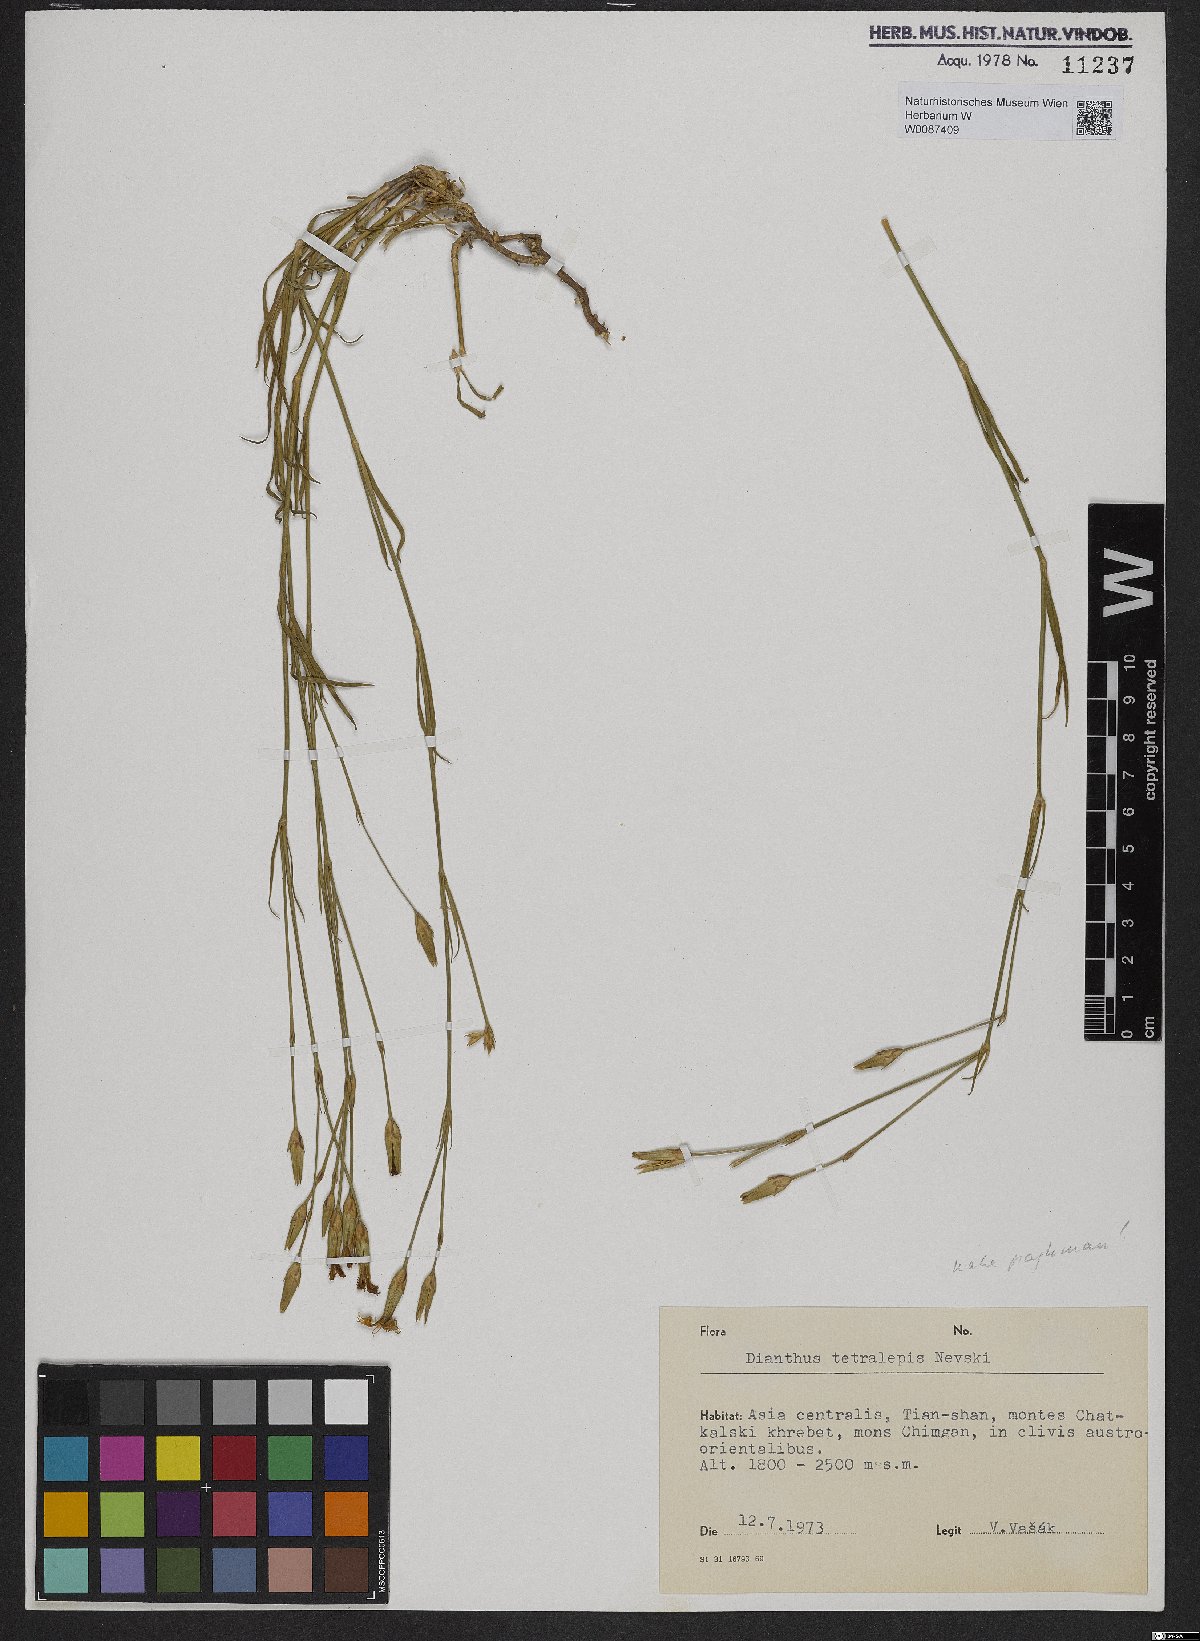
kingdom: Plantae
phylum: Tracheophyta
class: Magnoliopsida
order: Caryophyllales
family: Caryophyllaceae
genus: Dianthus
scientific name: Dianthus
